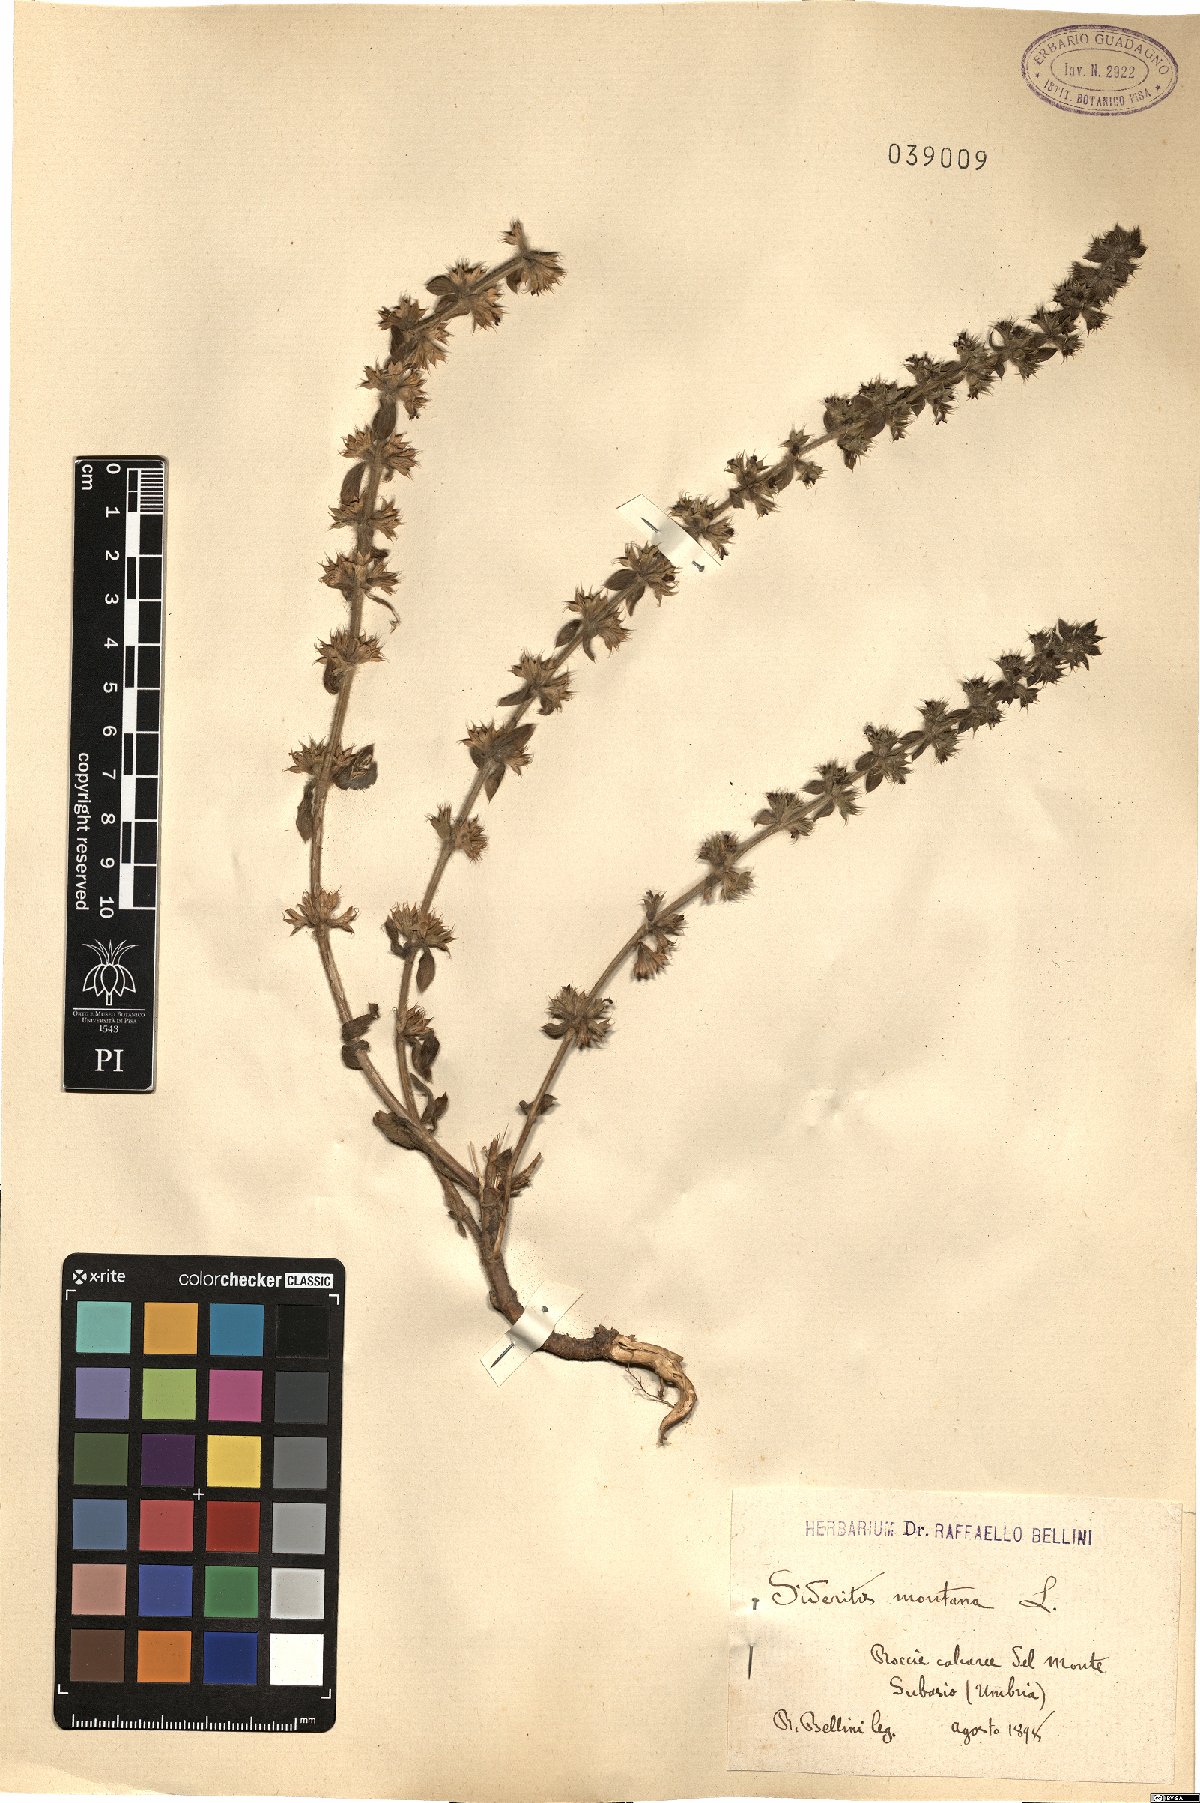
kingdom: Plantae
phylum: Tracheophyta
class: Magnoliopsida
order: Lamiales
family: Lamiaceae
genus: Sideritis
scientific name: Sideritis montana
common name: Mountain ironwort
